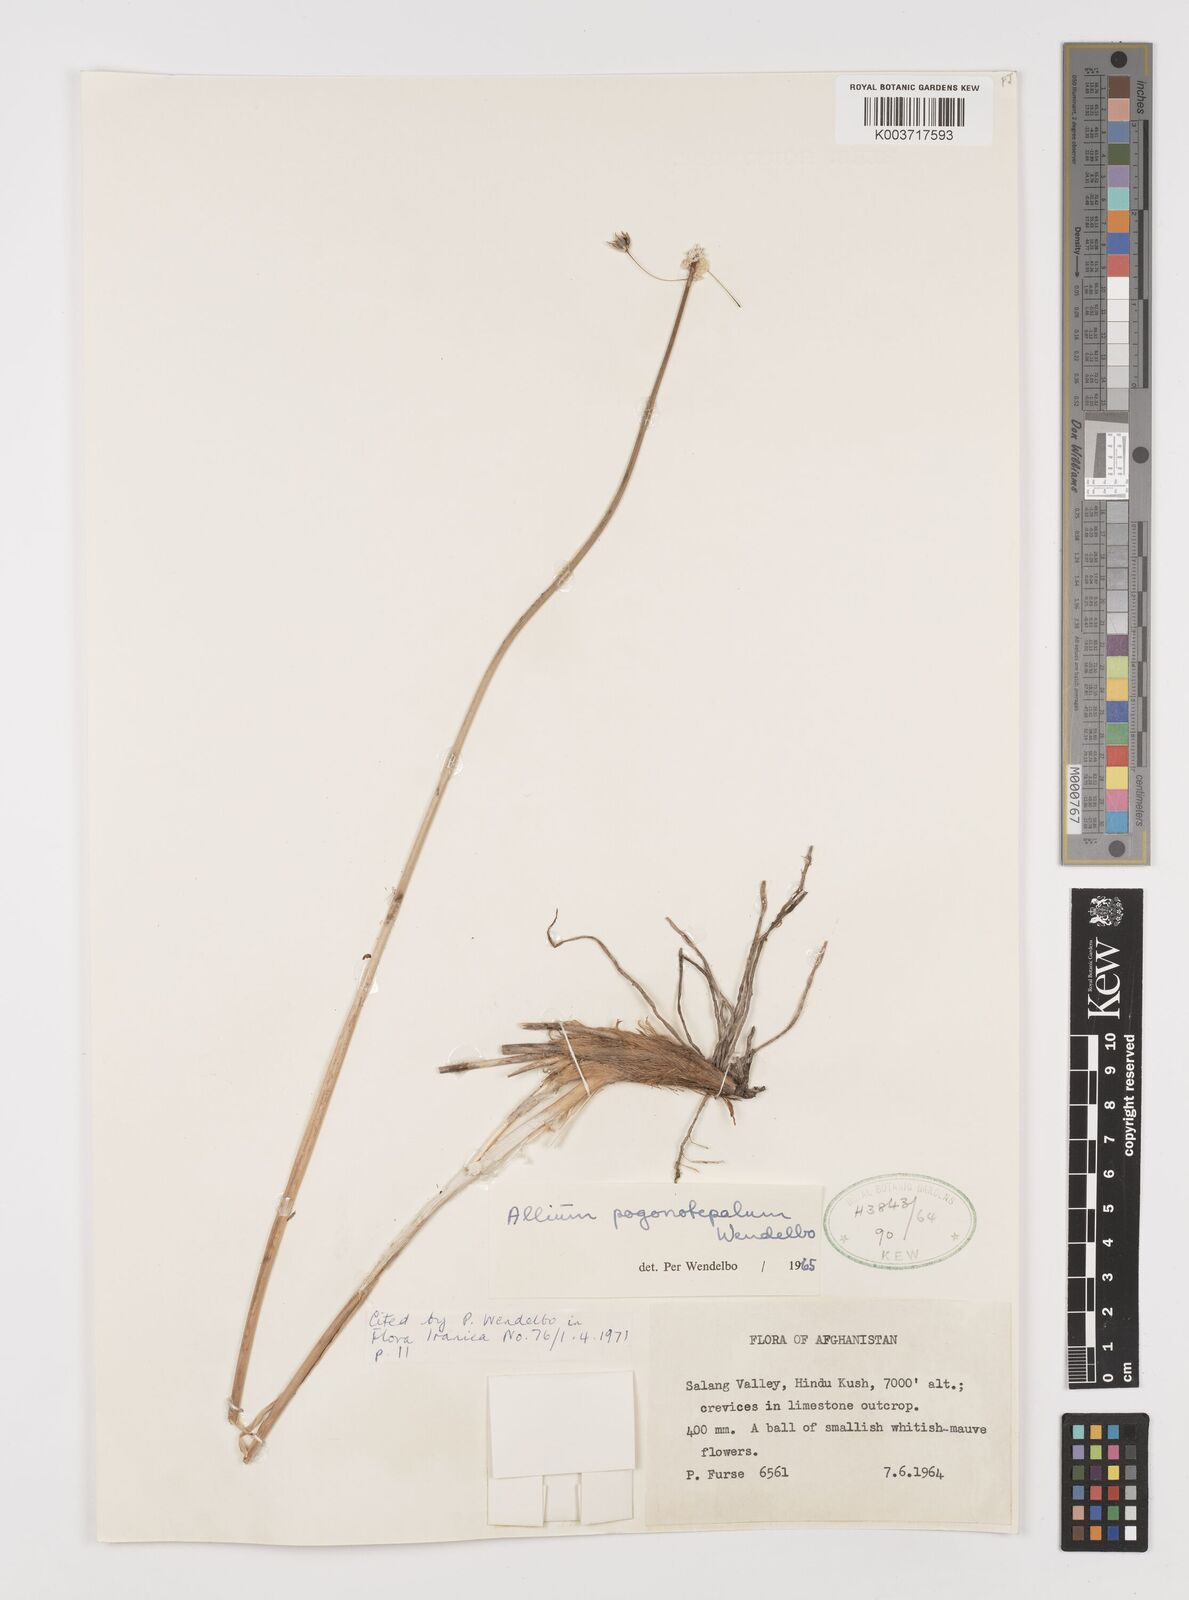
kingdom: Plantae
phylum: Tracheophyta
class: Liliopsida
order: Asparagales
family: Amaryllidaceae
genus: Allium
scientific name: Allium pogonotepalum
